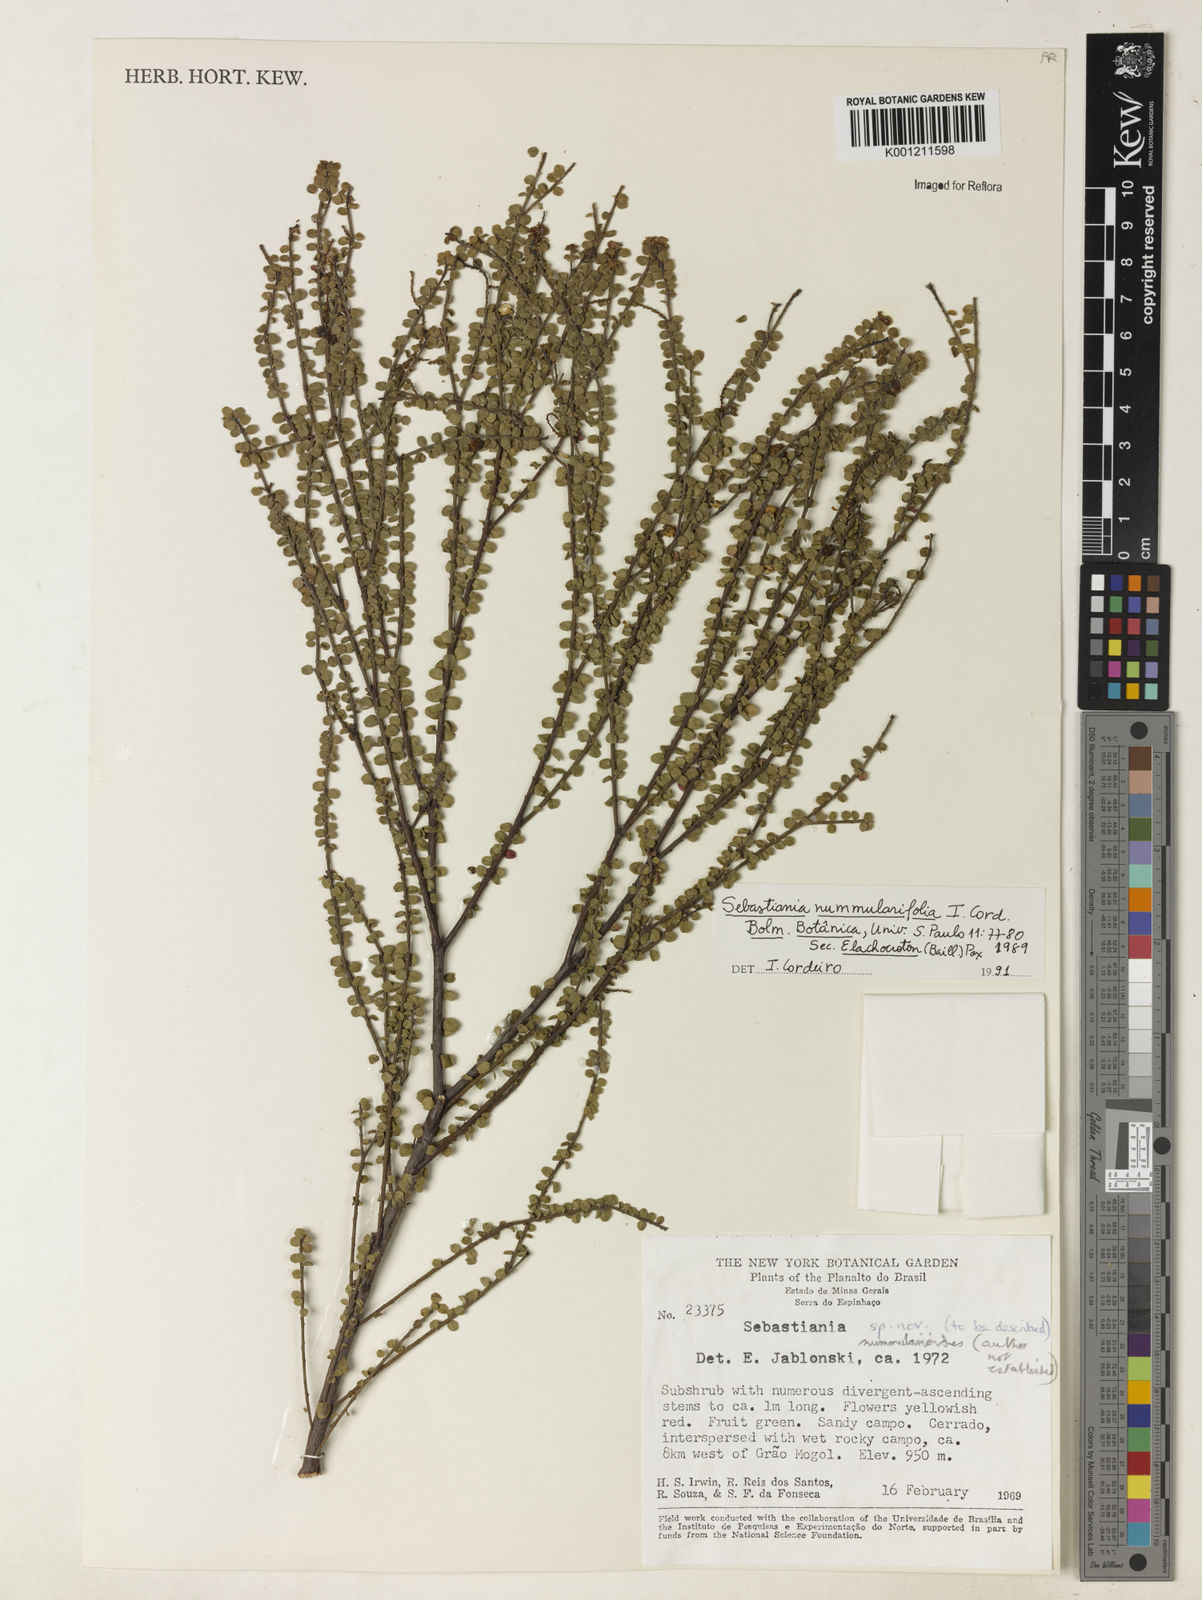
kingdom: Plantae
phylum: Tracheophyta
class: Magnoliopsida
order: Malpighiales
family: Euphorbiaceae
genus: Microstachys
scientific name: Microstachys nummulariifolia
